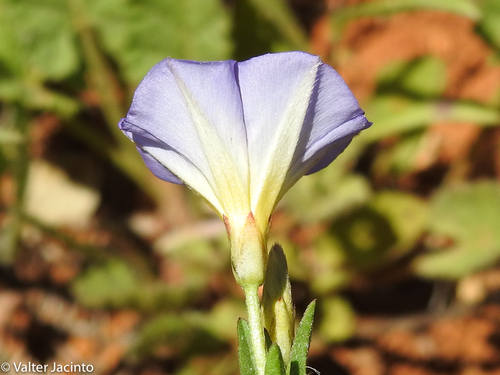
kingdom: Plantae
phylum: Tracheophyta
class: Magnoliopsida
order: Solanales
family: Convolvulaceae
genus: Convolvulus
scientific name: Convolvulus meonanthus
